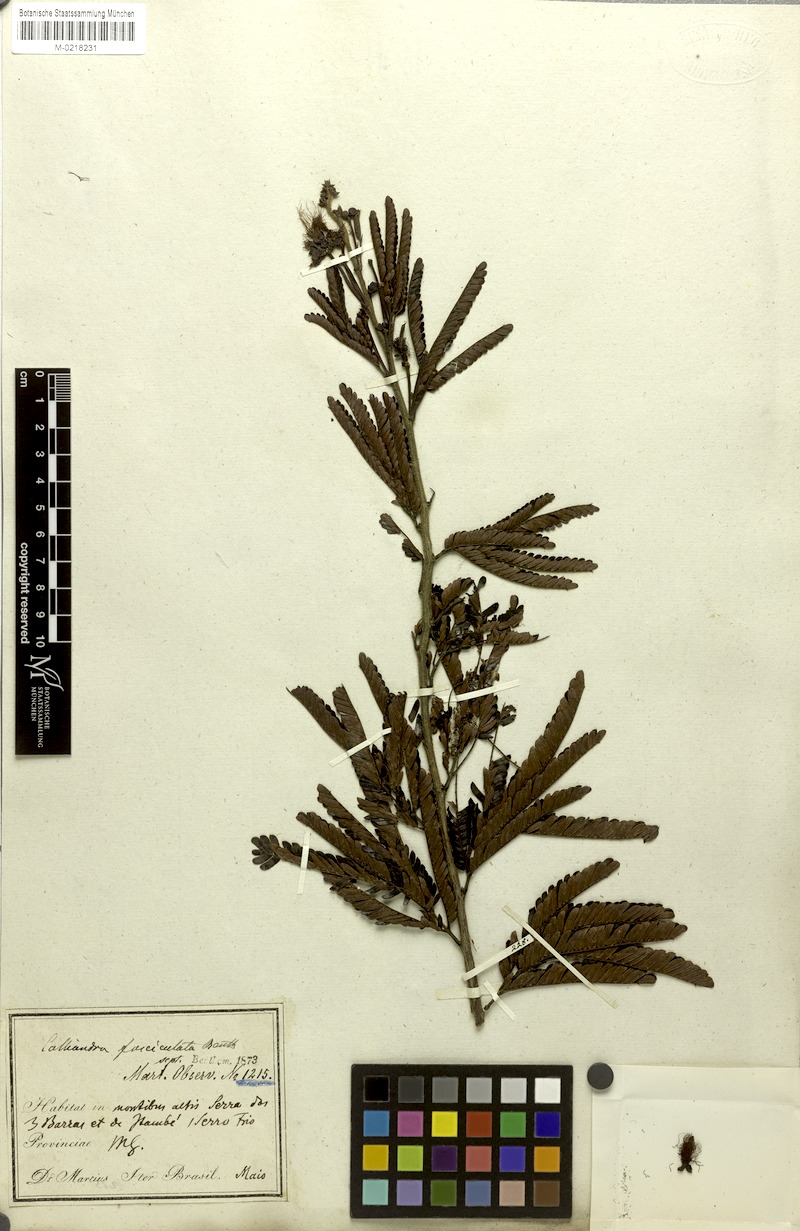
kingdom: Plantae
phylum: Tracheophyta
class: Magnoliopsida
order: Fabales
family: Fabaceae
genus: Calliandra
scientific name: Calliandra fasciculata
